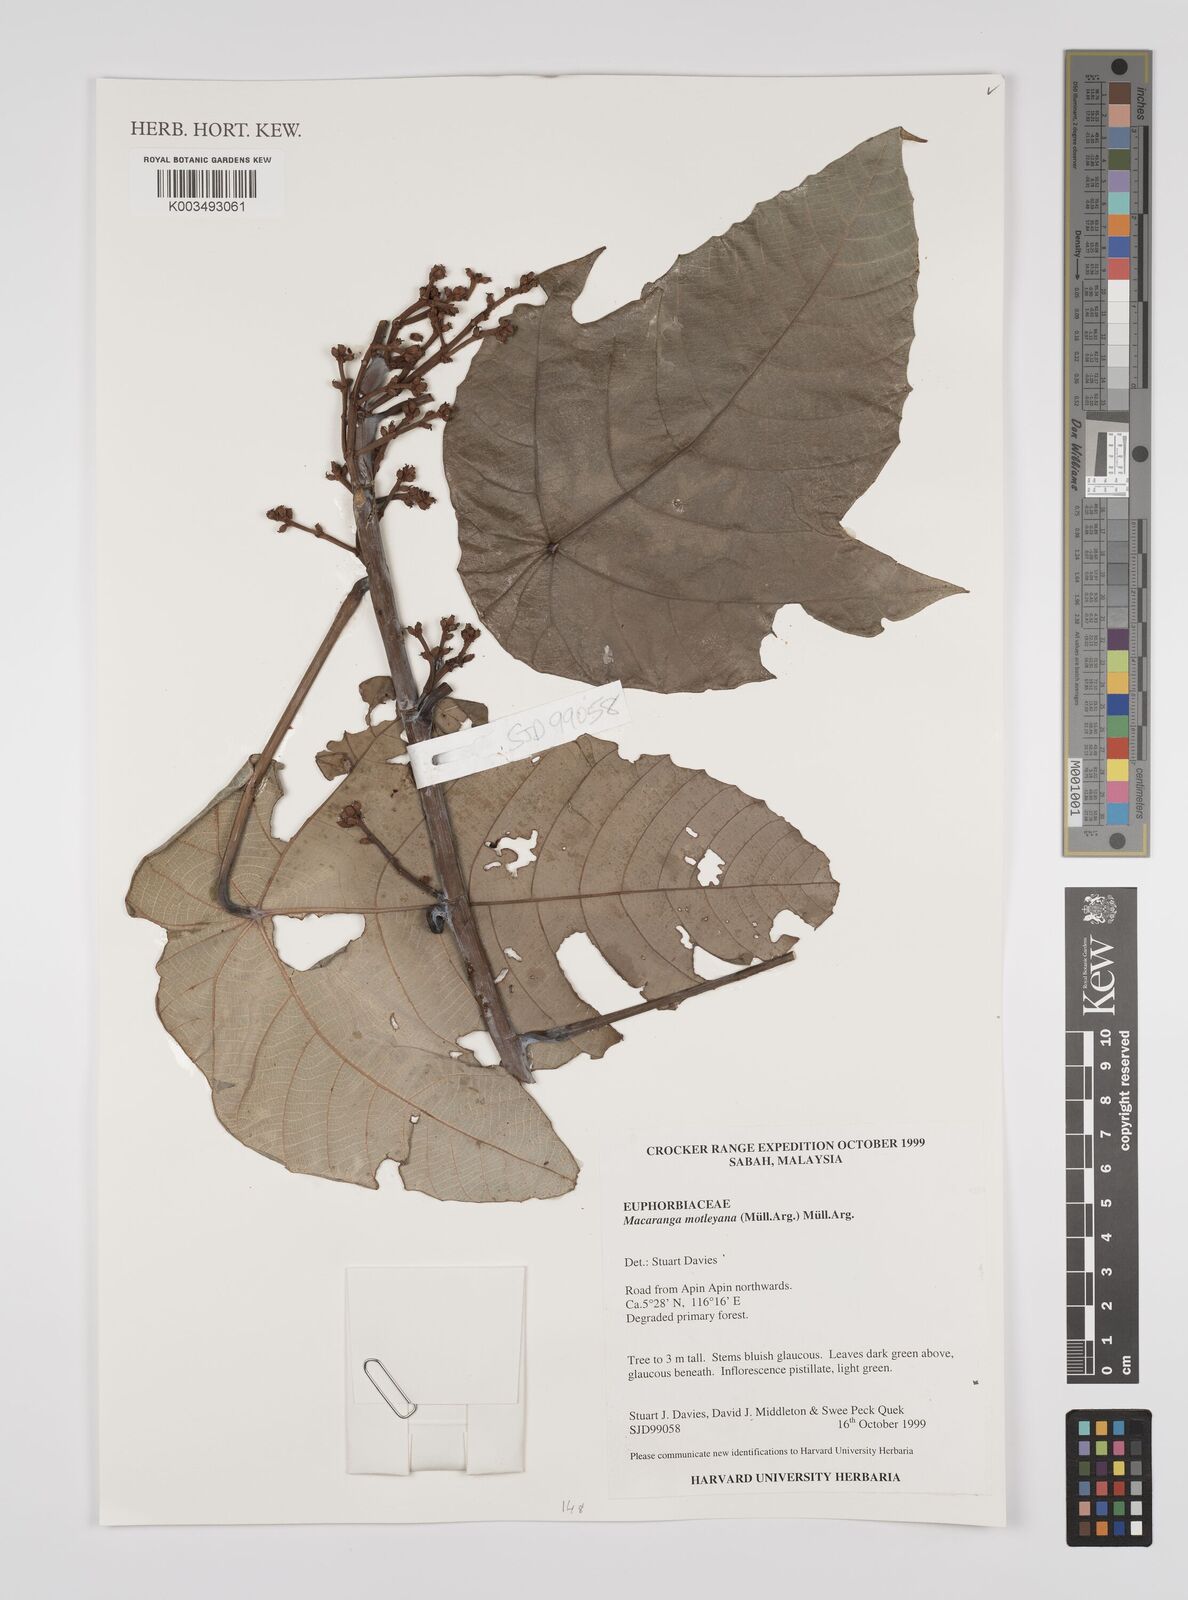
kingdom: Plantae
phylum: Tracheophyta
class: Magnoliopsida
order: Malpighiales
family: Euphorbiaceae
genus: Macaranga
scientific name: Macaranga motleyana
